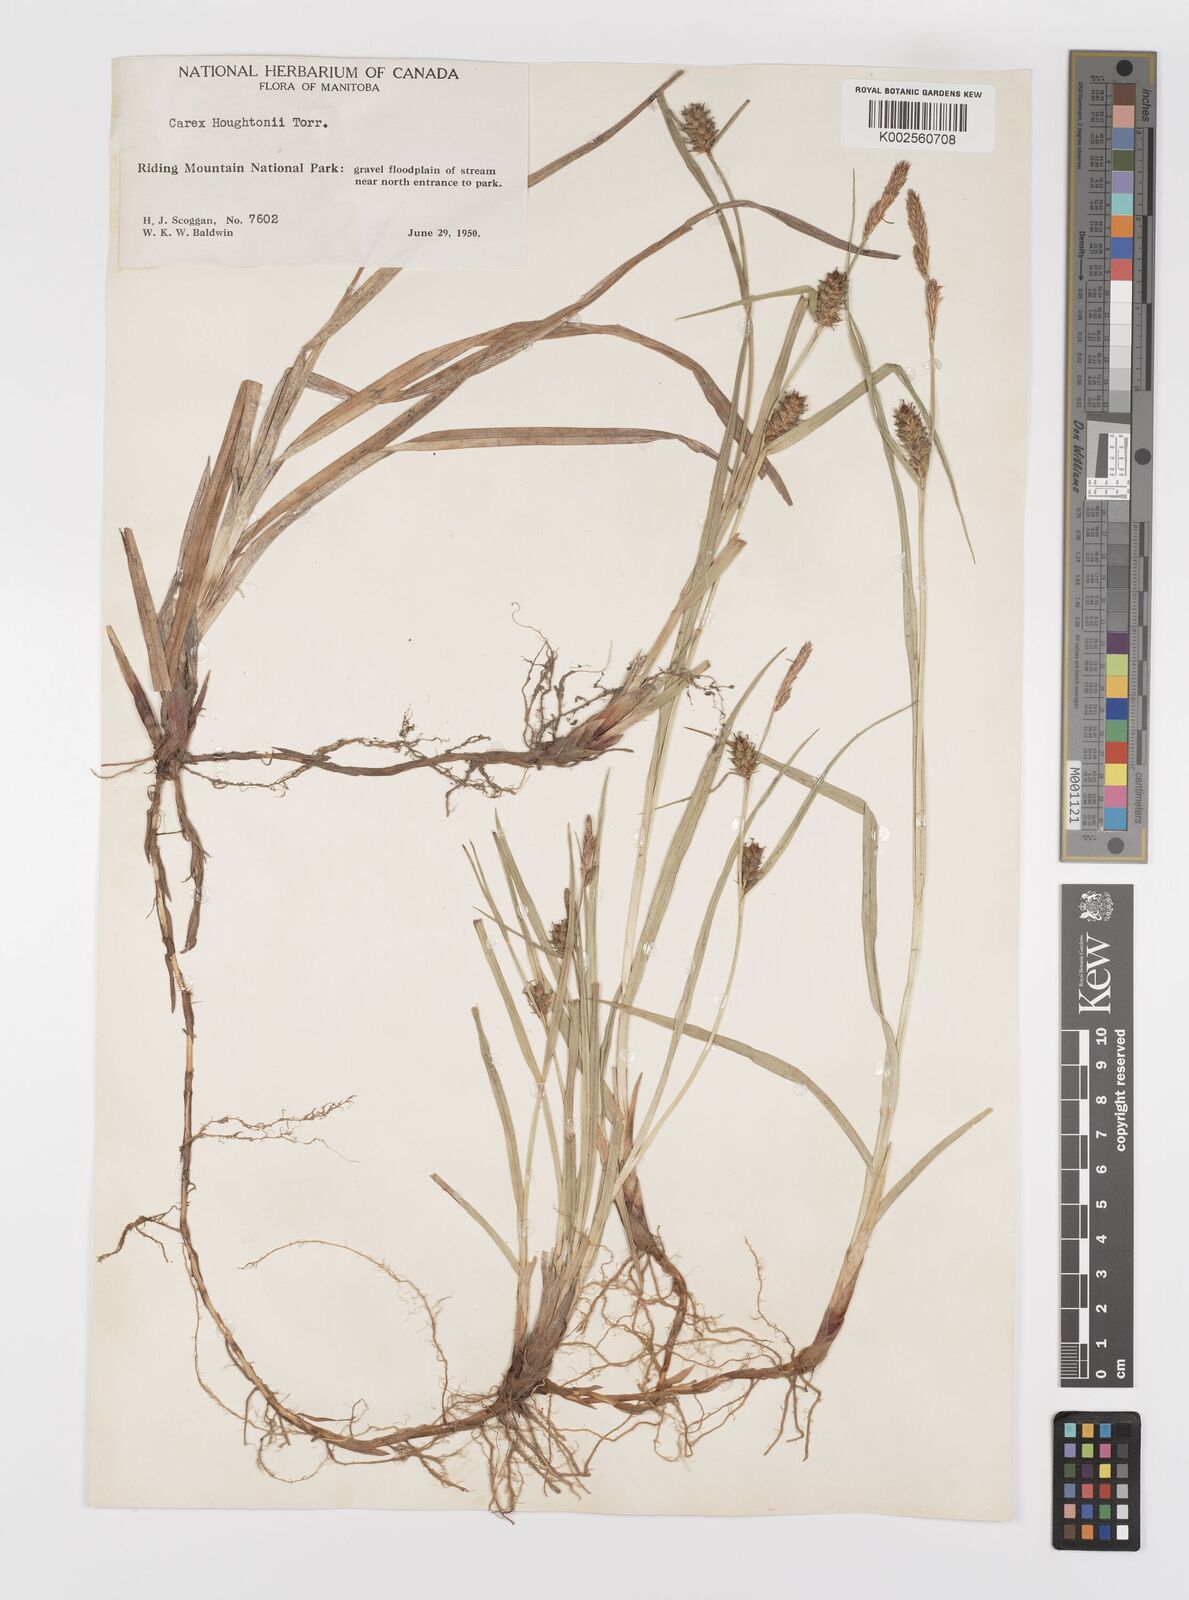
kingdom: Plantae
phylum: Tracheophyta
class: Liliopsida
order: Poales
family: Cyperaceae
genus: Carex
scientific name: Carex houghtoniana
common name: Houghton's sedge
